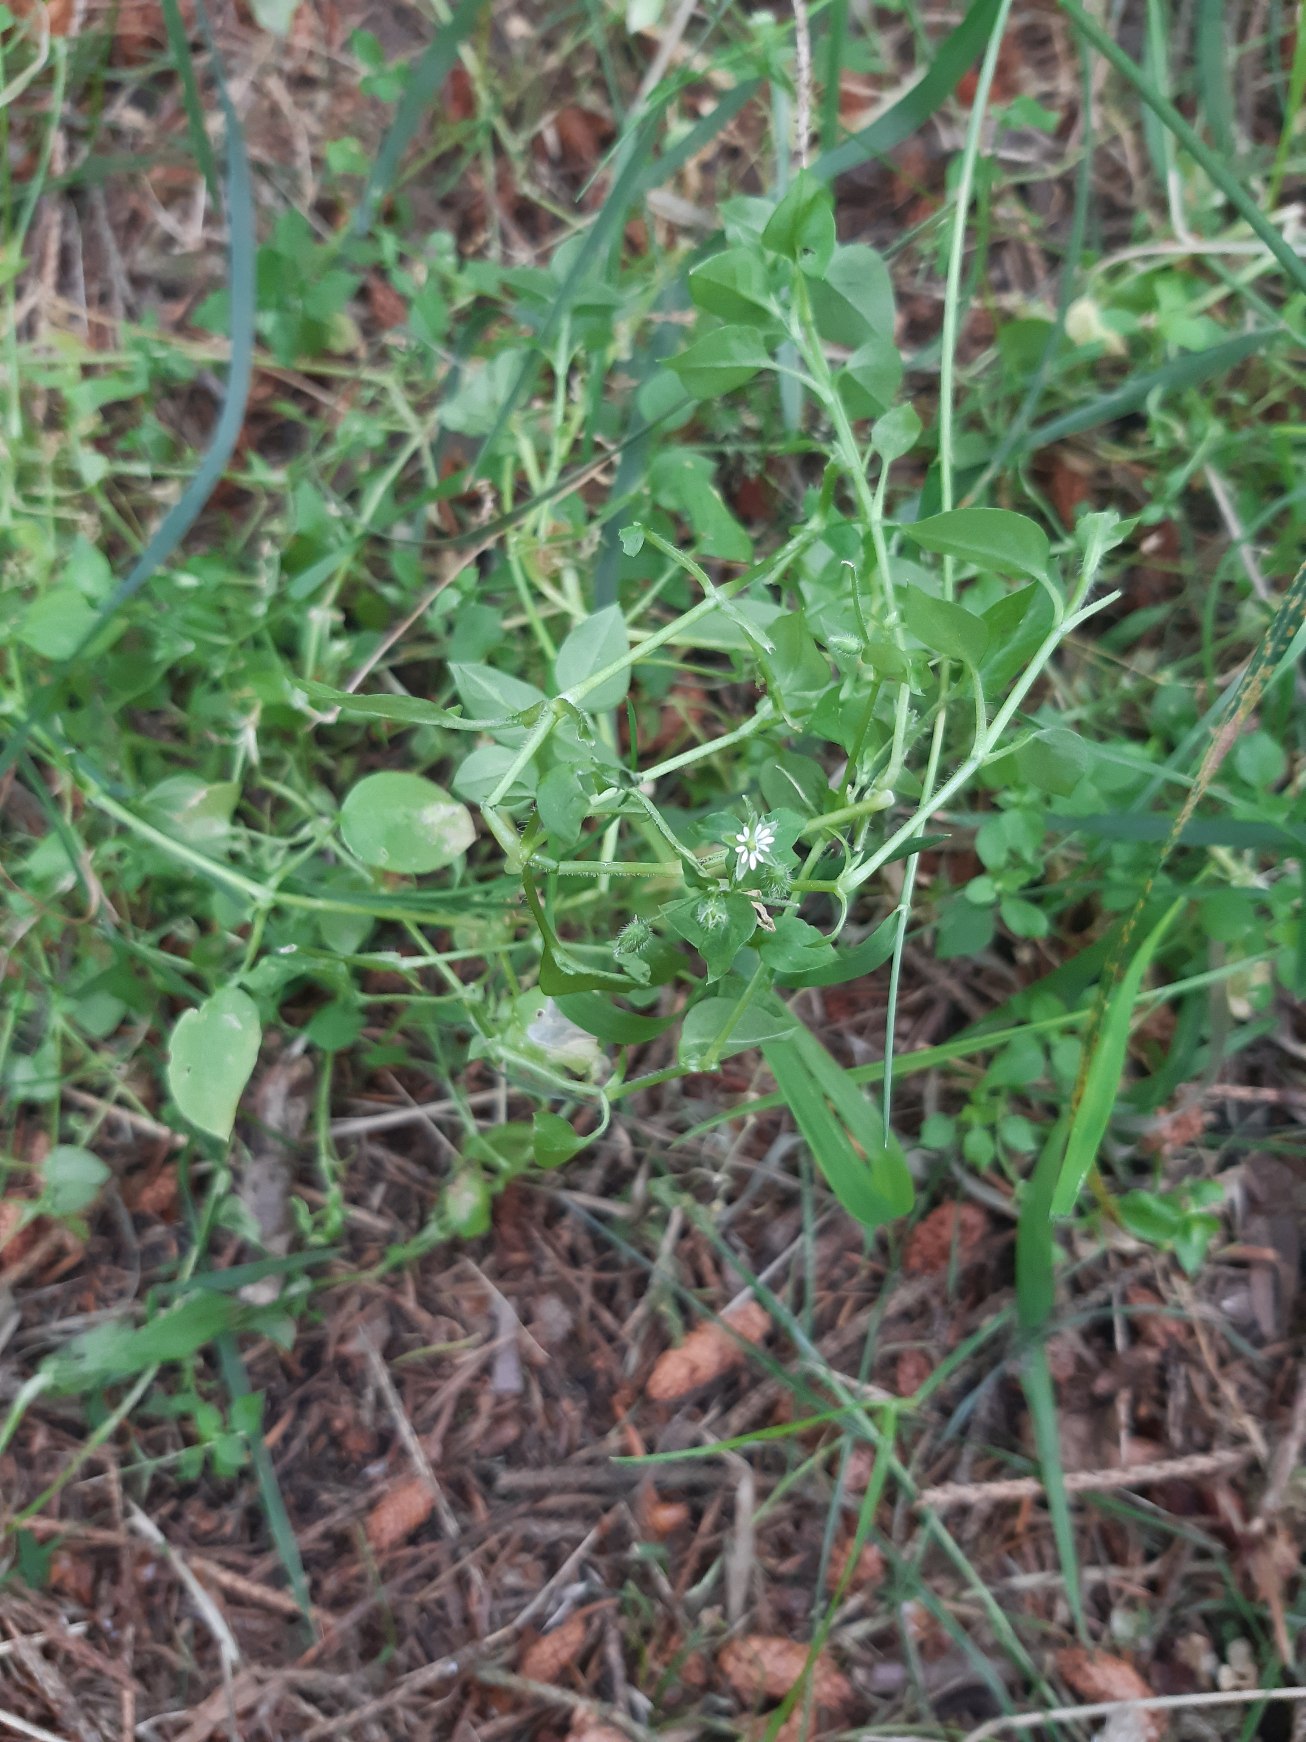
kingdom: Plantae
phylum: Tracheophyta
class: Magnoliopsida
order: Caryophyllales
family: Caryophyllaceae
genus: Stellaria
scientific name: Stellaria media
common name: Almindelig fuglegræs
